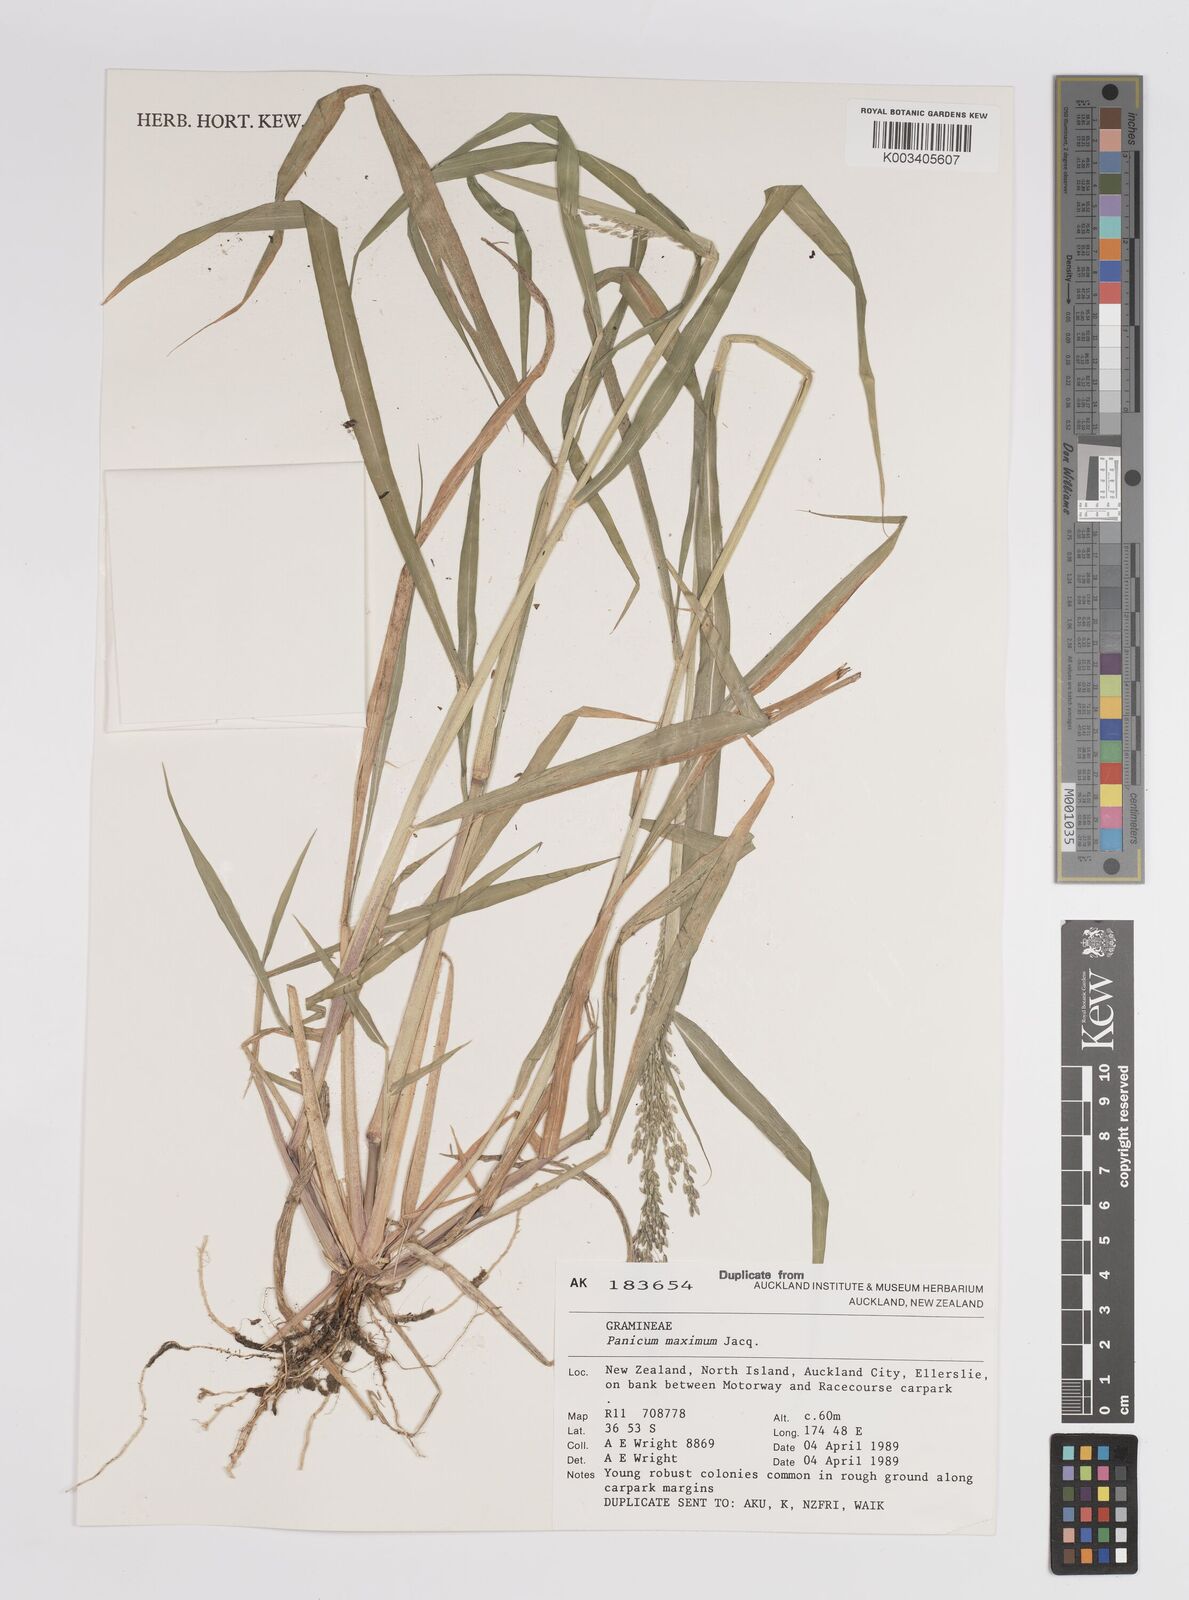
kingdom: Plantae
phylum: Tracheophyta
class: Liliopsida
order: Poales
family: Poaceae
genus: Megathyrsus
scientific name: Megathyrsus maximus
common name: Guineagrass
